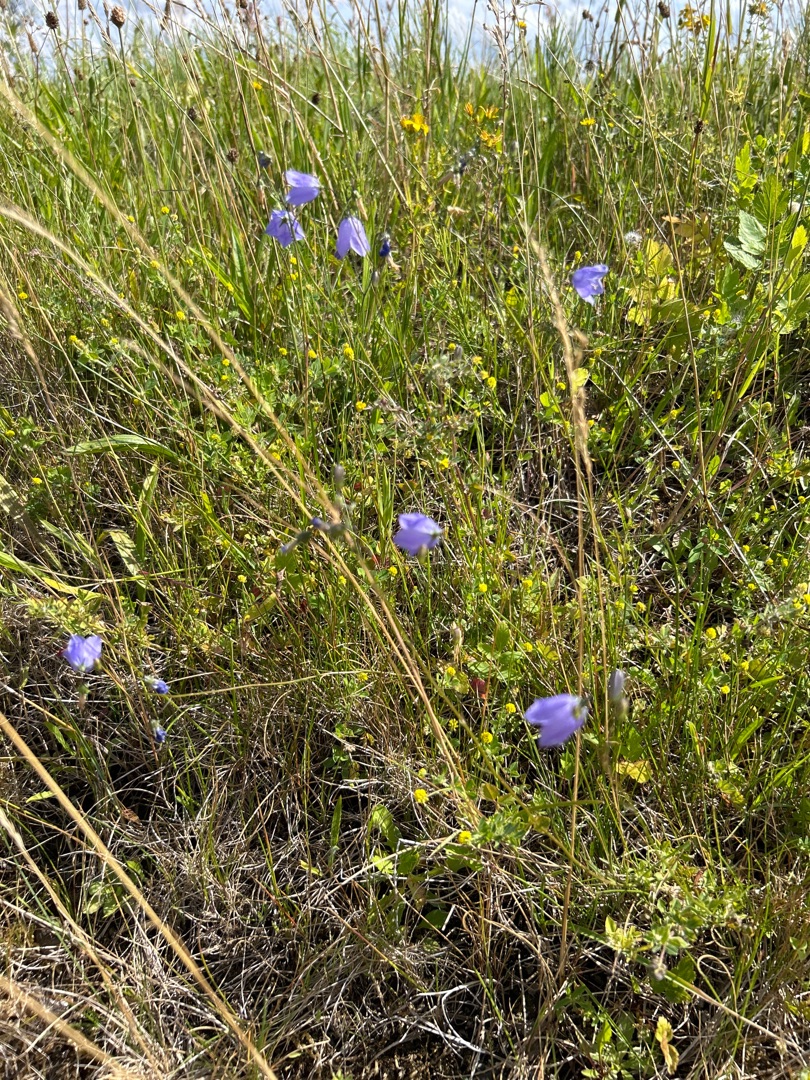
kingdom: Plantae
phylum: Tracheophyta
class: Magnoliopsida
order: Asterales
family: Campanulaceae
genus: Campanula
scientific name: Campanula rotundifolia
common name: Liden klokke
